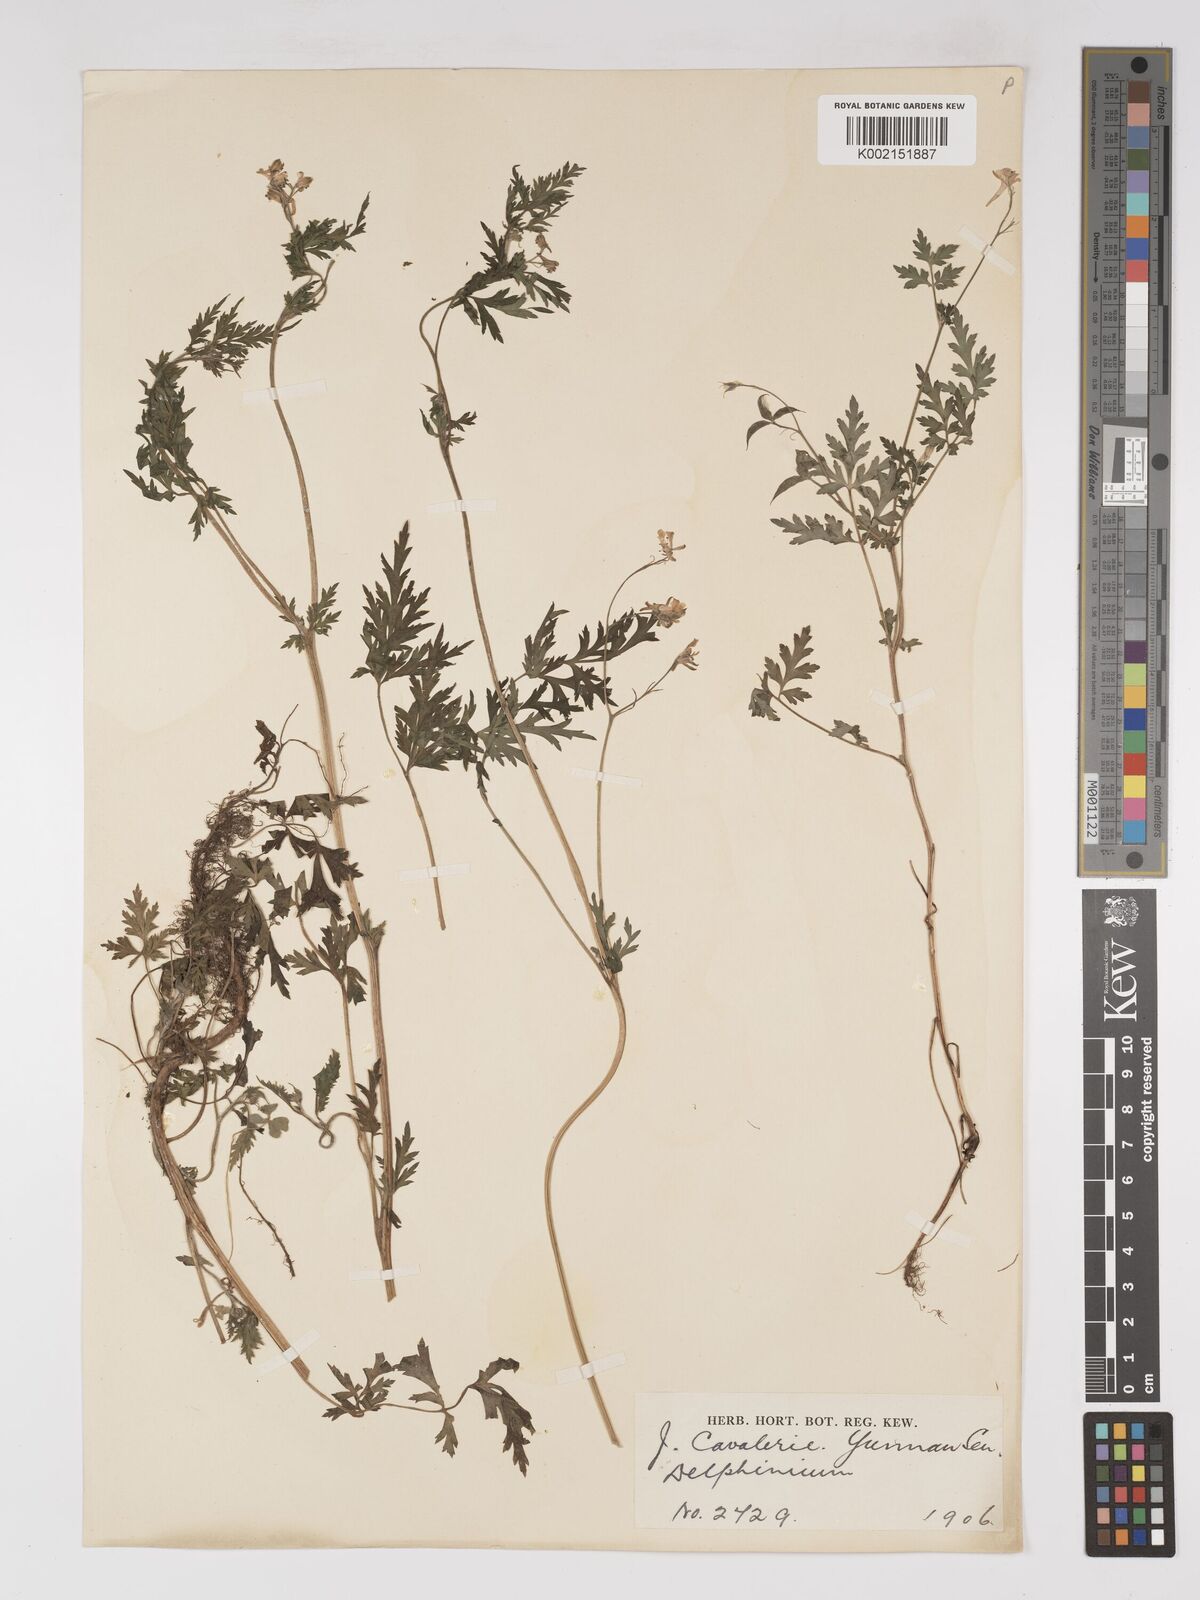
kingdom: Plantae
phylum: Tracheophyta
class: Magnoliopsida
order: Ranunculales
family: Ranunculaceae
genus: Delphinium
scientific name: Delphinium anthriscifolium
